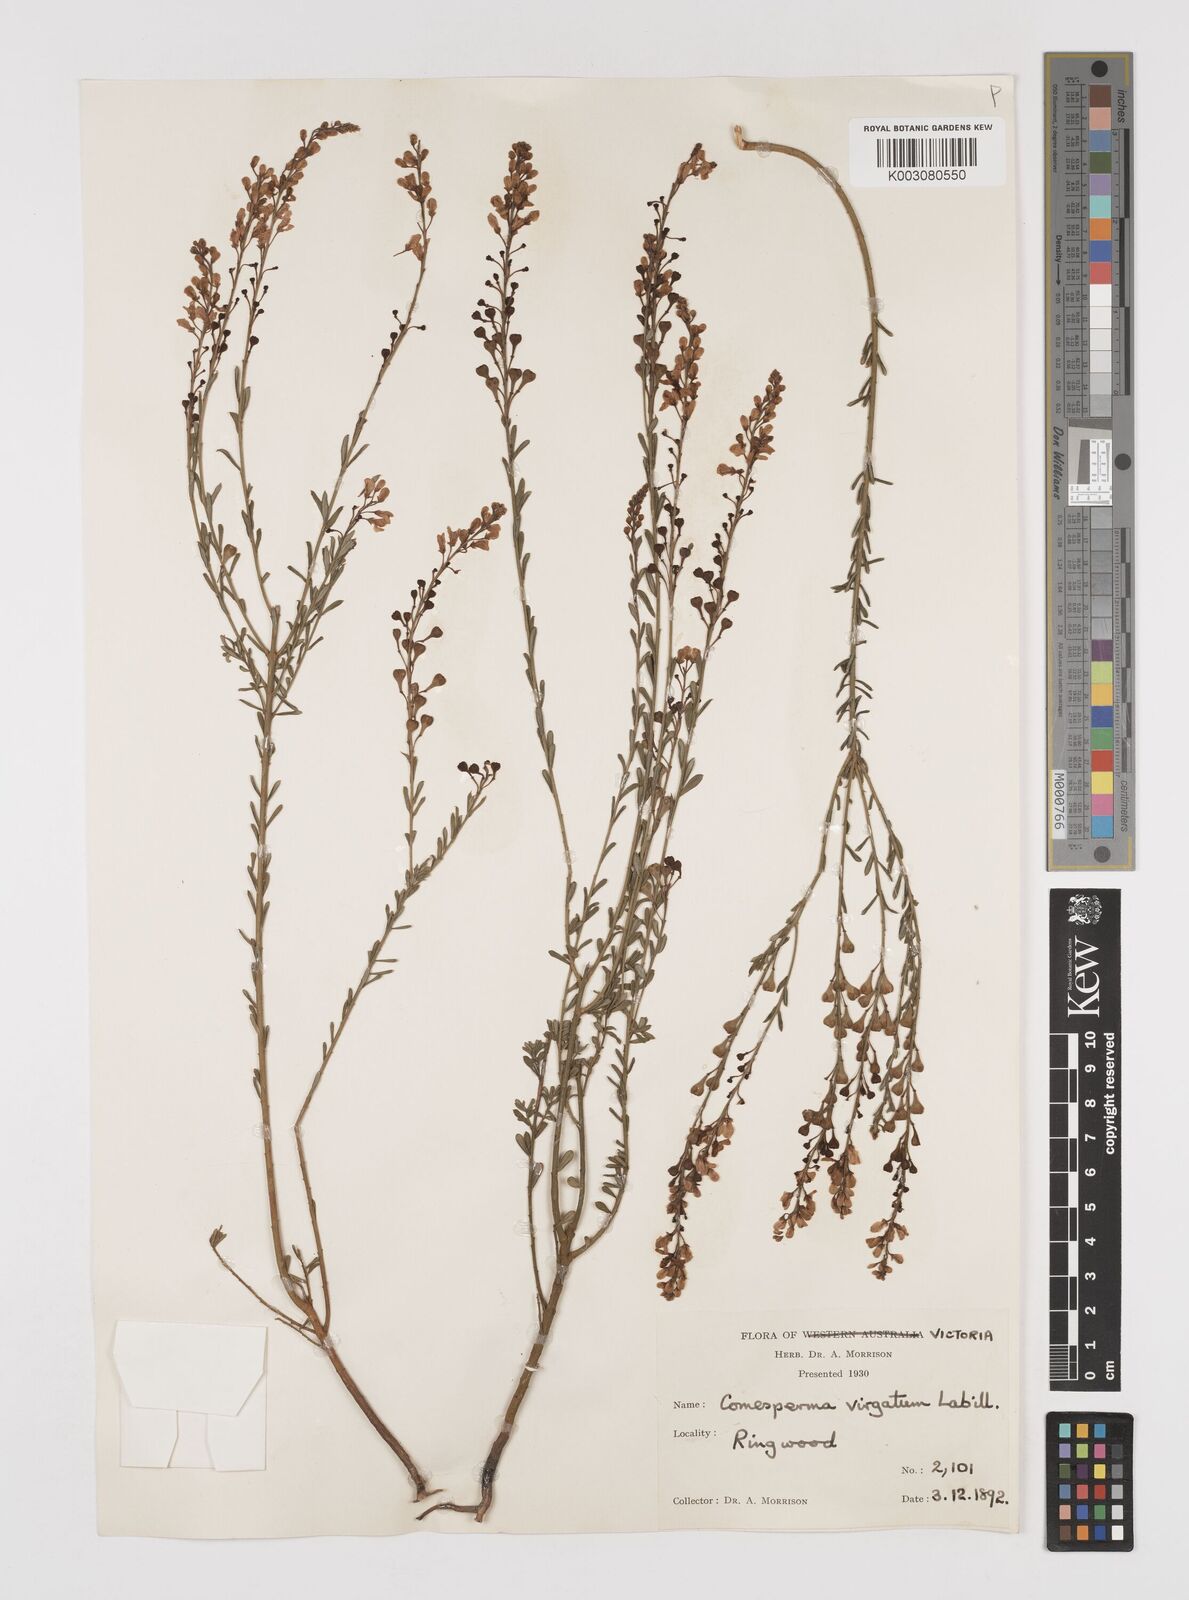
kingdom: Plantae
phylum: Tracheophyta
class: Magnoliopsida
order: Fabales
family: Polygalaceae
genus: Comesperma
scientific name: Comesperma virgatum
